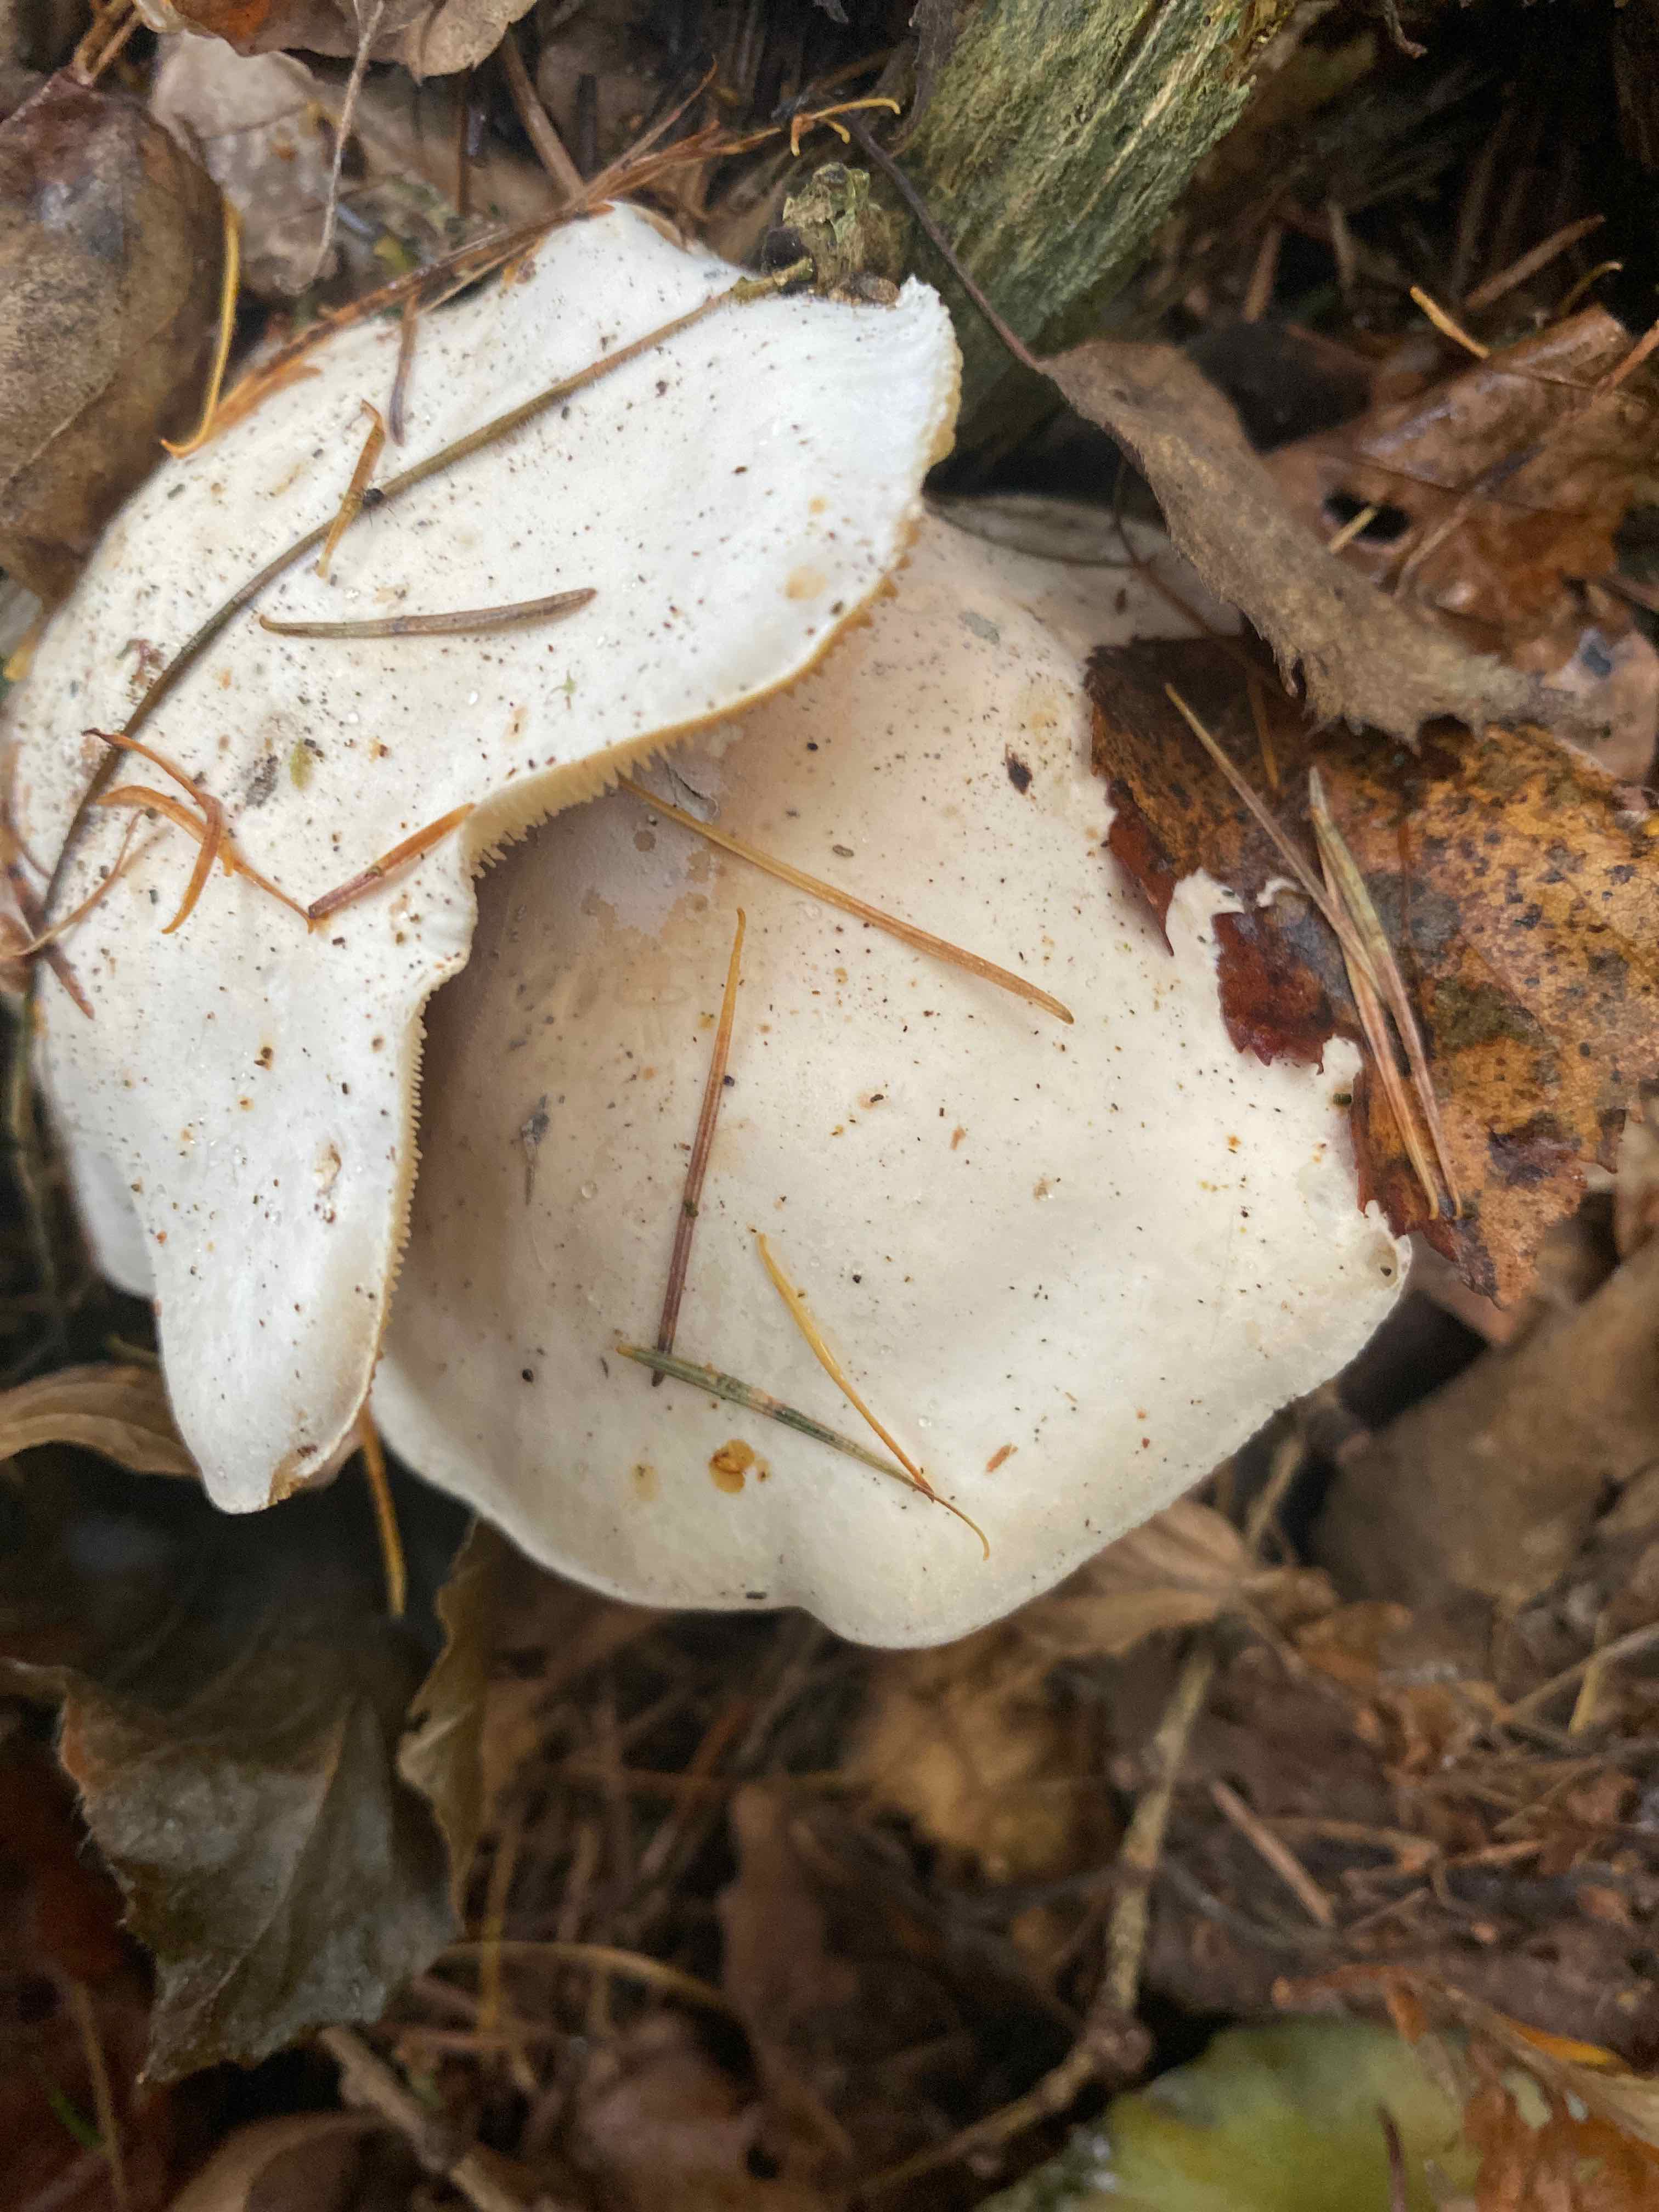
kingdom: Fungi
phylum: Basidiomycota
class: Agaricomycetes
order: Agaricales
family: Tricholomataceae
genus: Clitocybe
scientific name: Clitocybe phyllophila
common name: løv-tragthat
